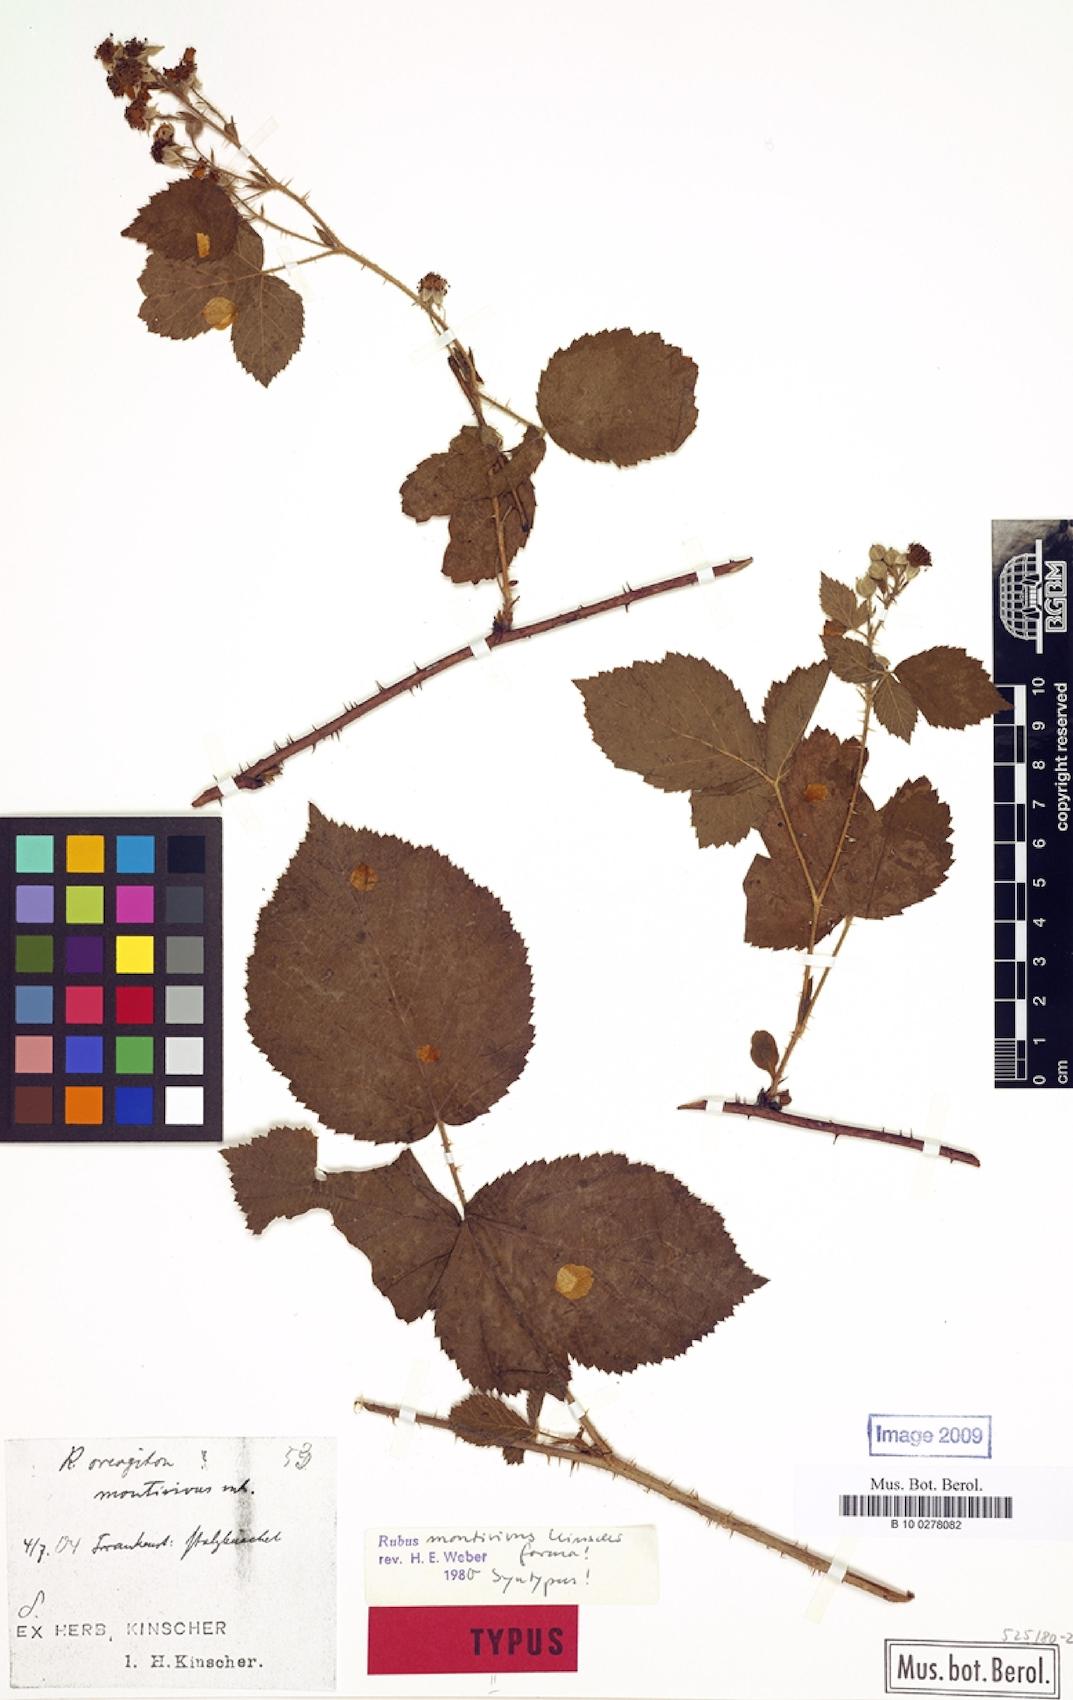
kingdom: Plantae
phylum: Tracheophyta
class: Magnoliopsida
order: Rosales
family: Rosaceae
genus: Rubus
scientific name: Rubus dollnensis
